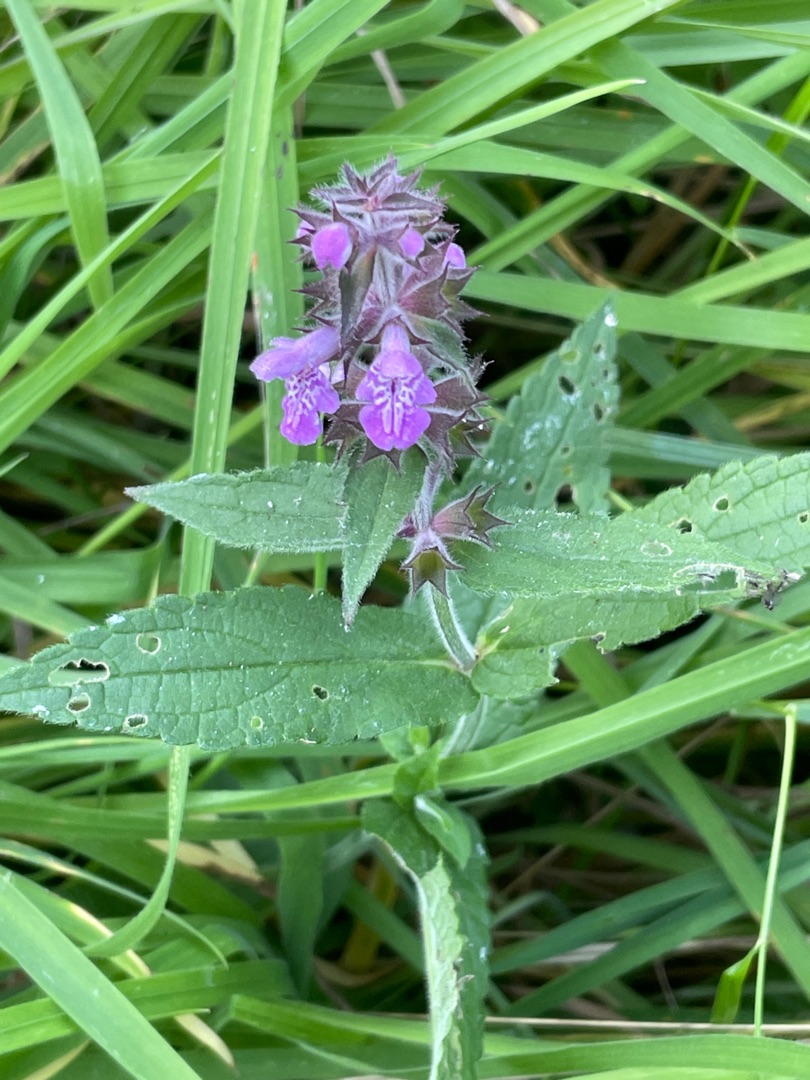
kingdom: Plantae
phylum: Tracheophyta
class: Magnoliopsida
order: Lamiales
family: Lamiaceae
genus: Stachys
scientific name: Stachys palustris
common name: Kær-galtetand
